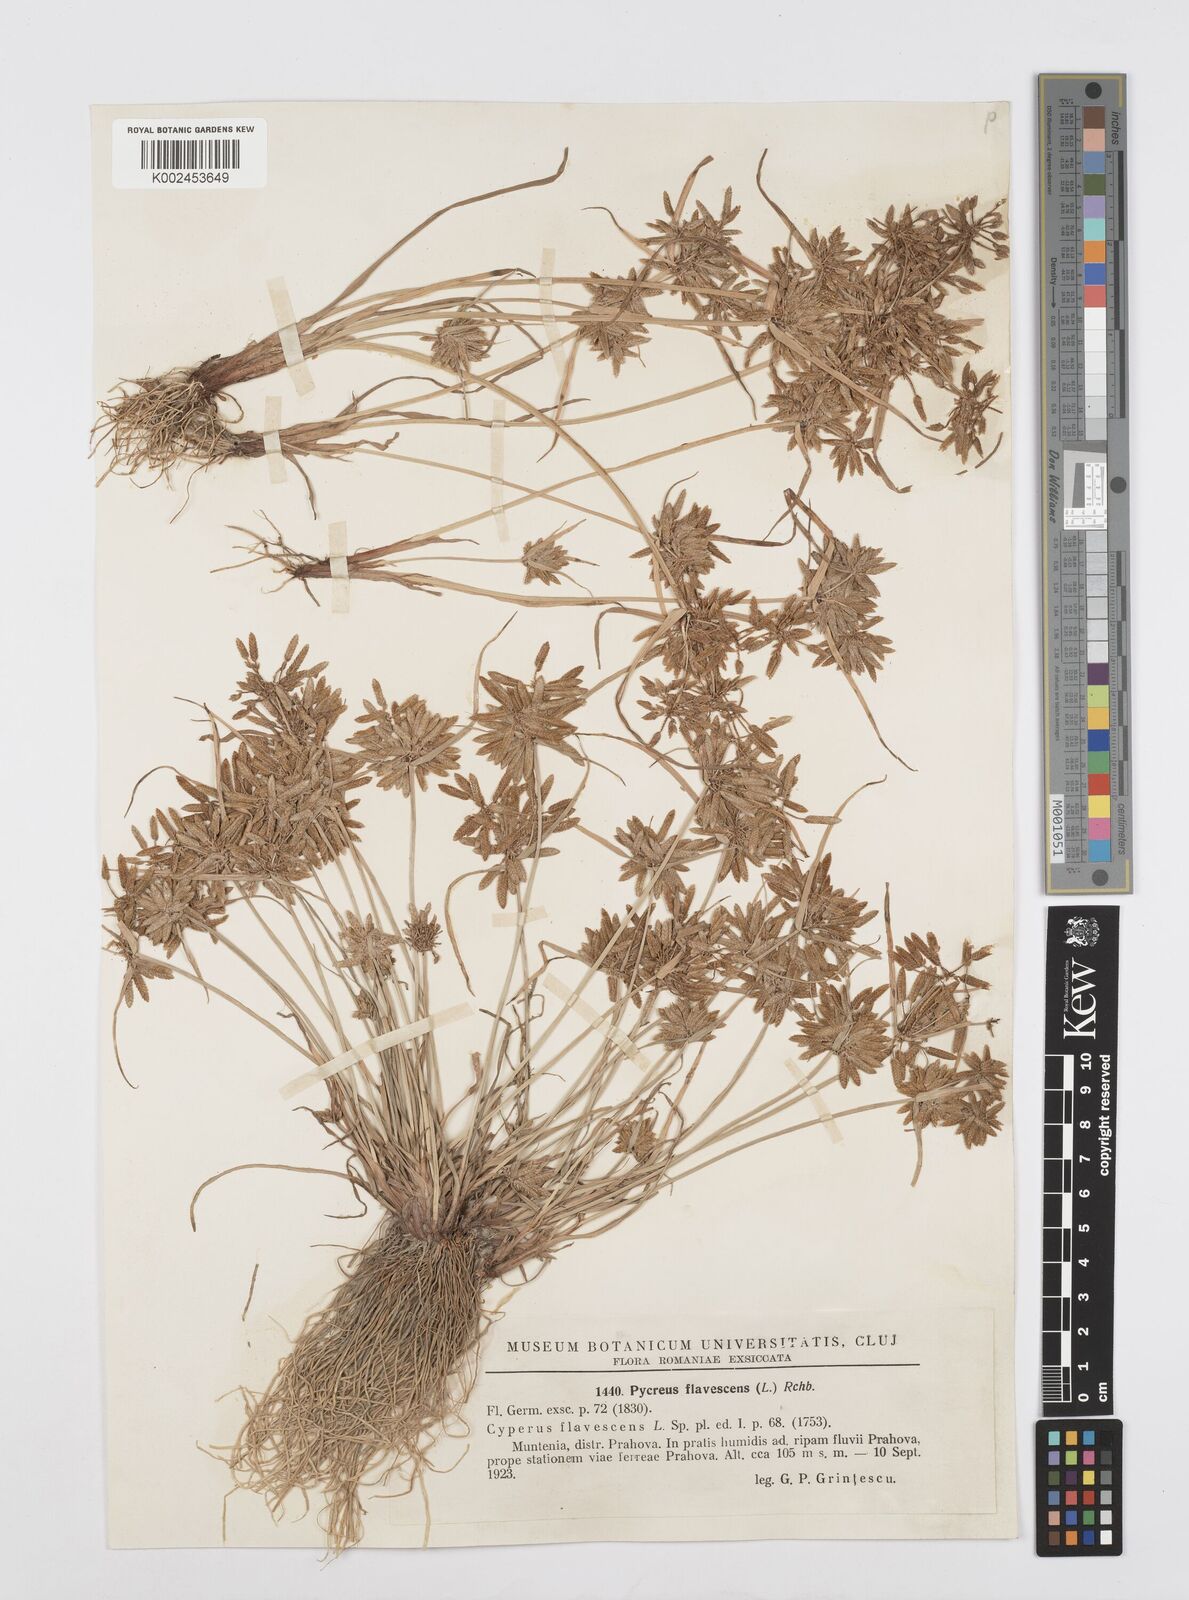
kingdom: Plantae
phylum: Tracheophyta
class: Liliopsida
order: Poales
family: Cyperaceae
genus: Cyperus
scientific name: Cyperus flavescens
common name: Yellow galingale
